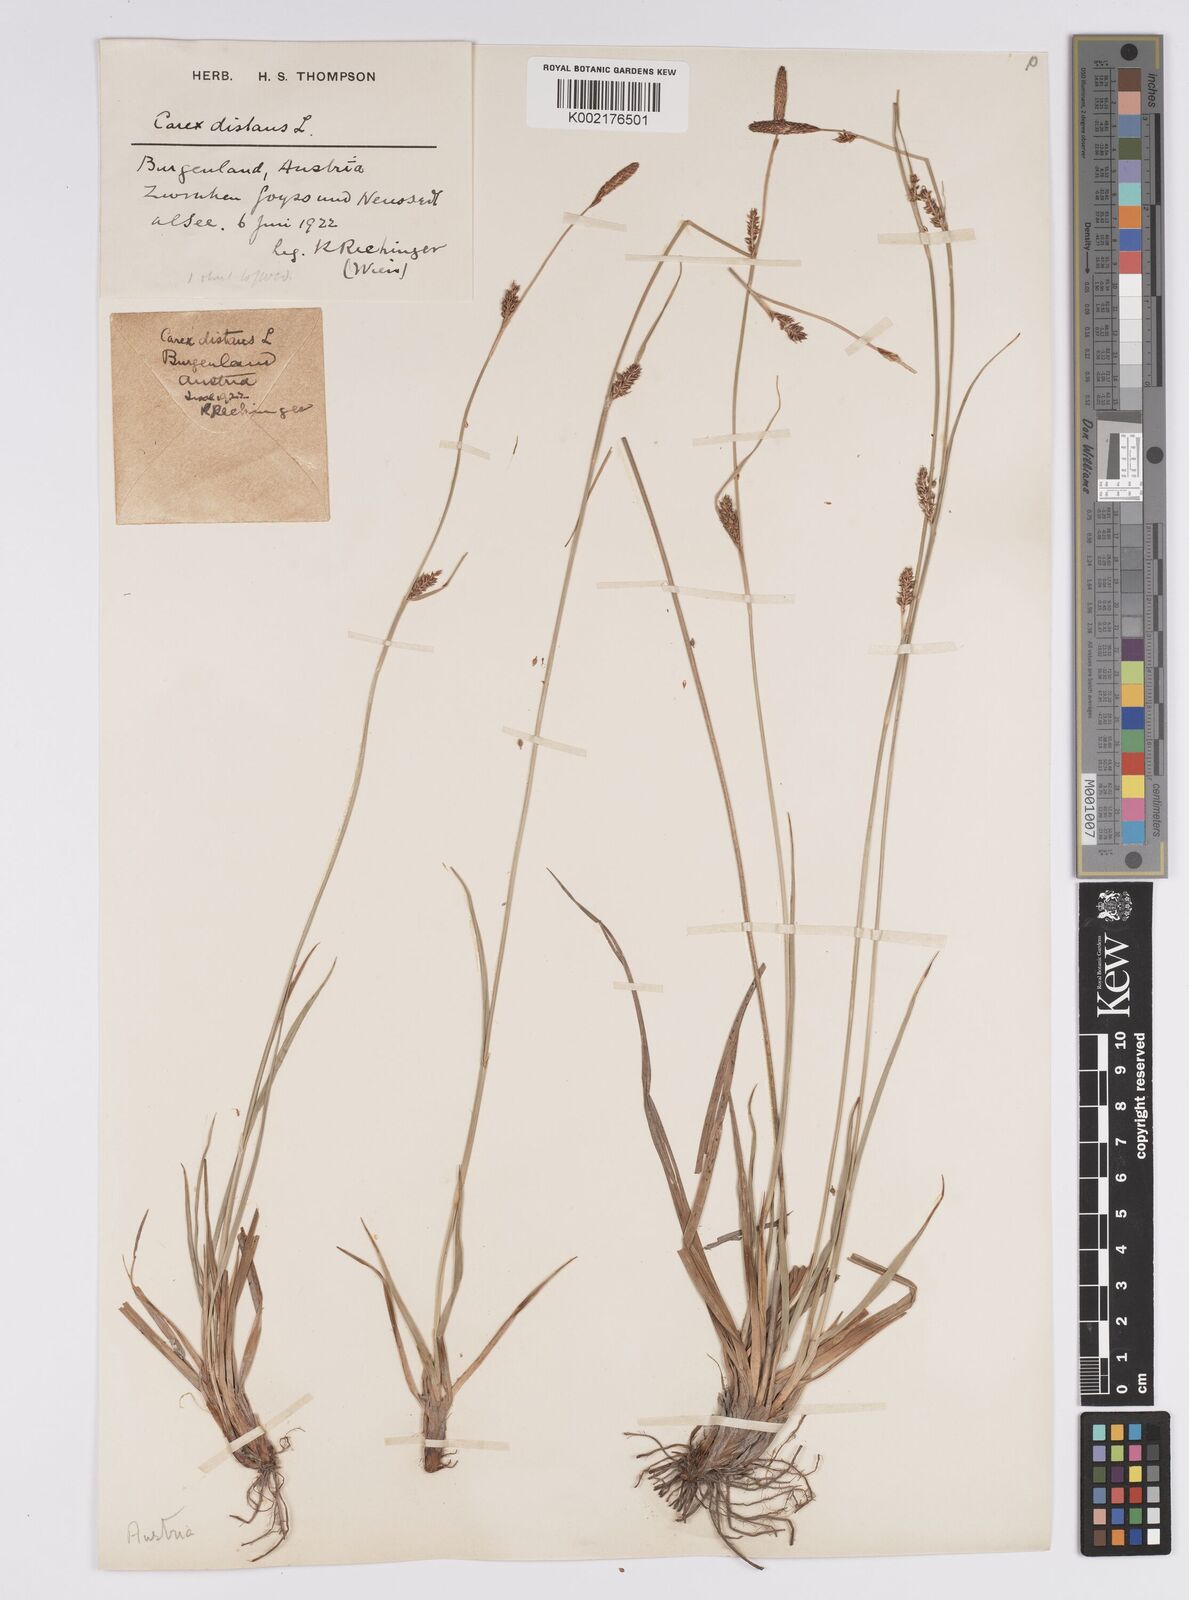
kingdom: Plantae
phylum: Tracheophyta
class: Liliopsida
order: Poales
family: Cyperaceae
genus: Carex
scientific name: Carex distans
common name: Distant sedge
